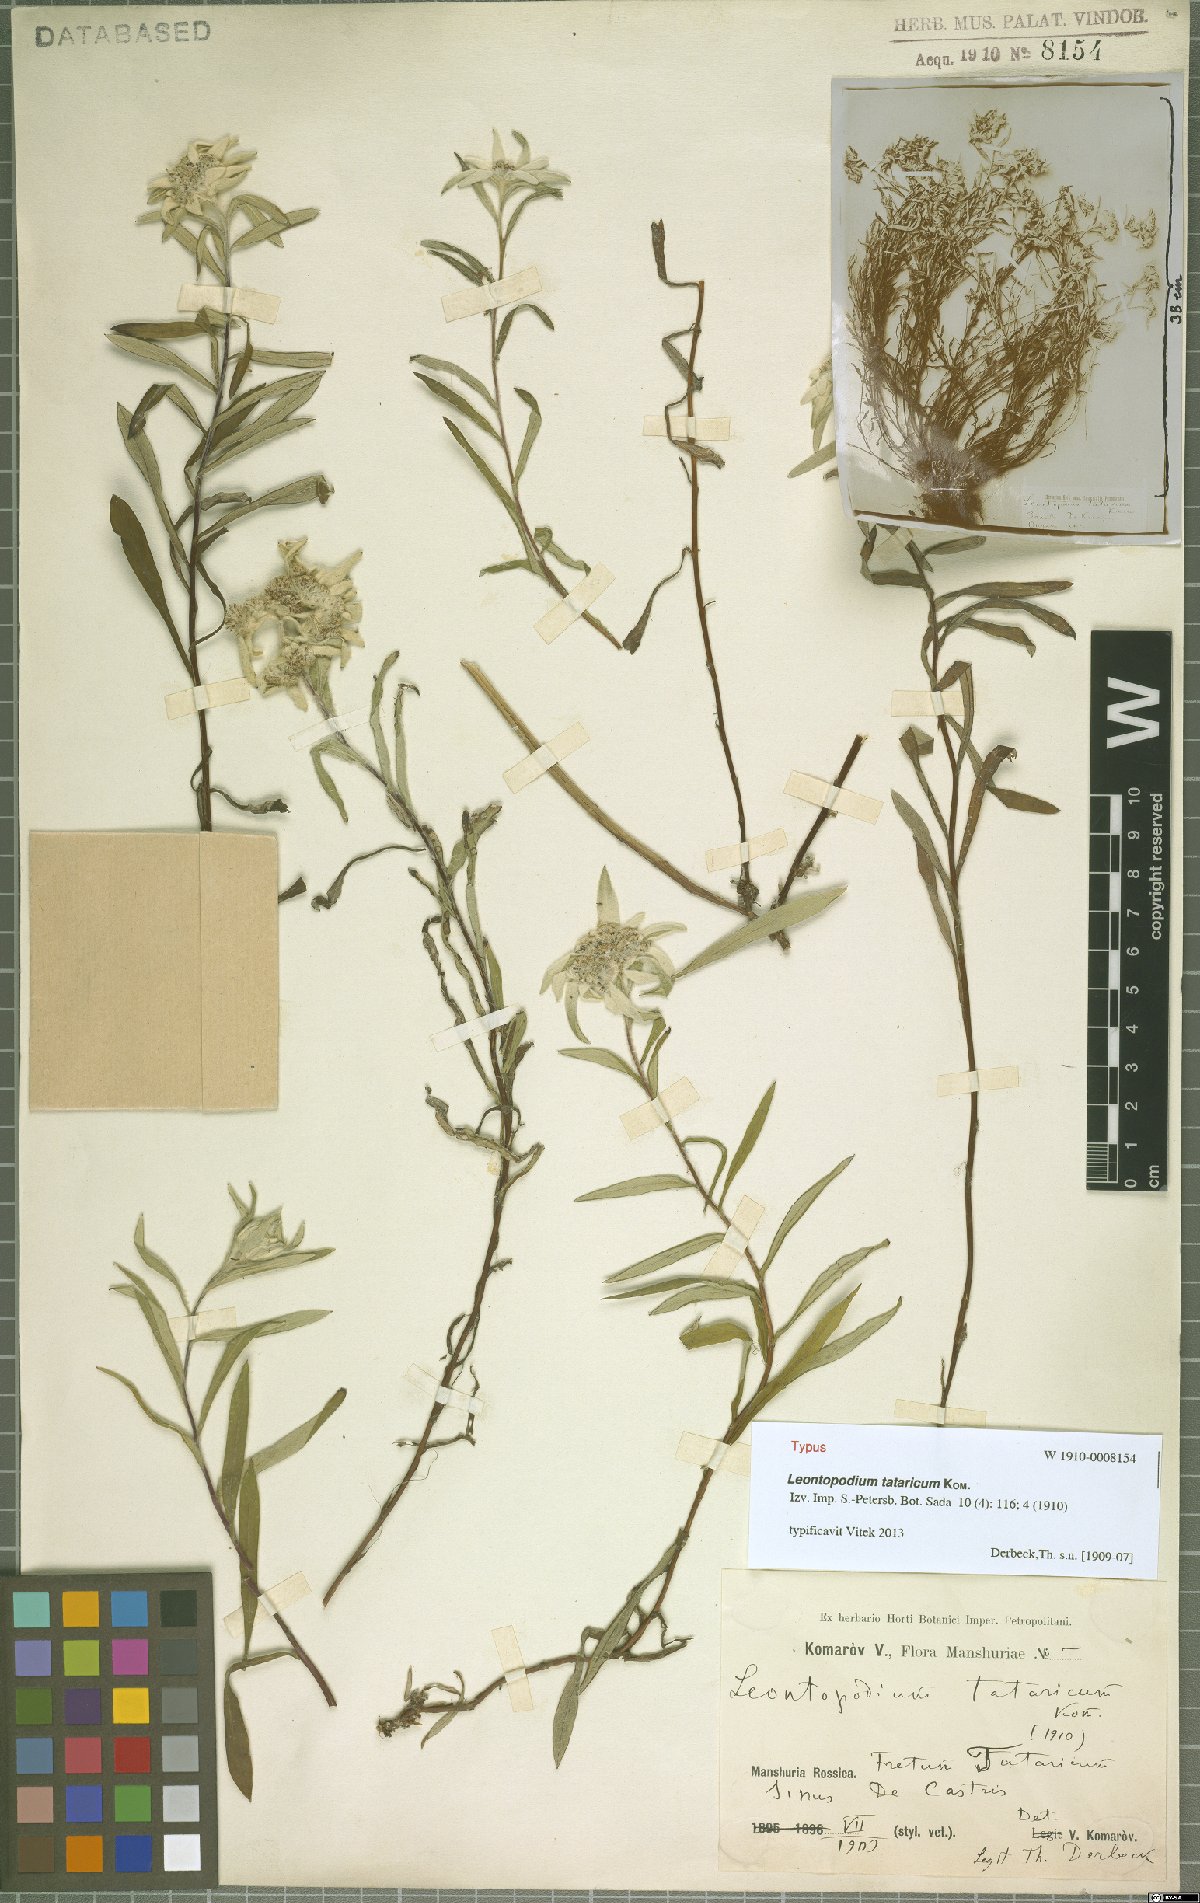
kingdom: Plantae
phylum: Tracheophyta
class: Magnoliopsida
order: Asterales
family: Asteraceae
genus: Leontopodium
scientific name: Leontopodium tataricum
